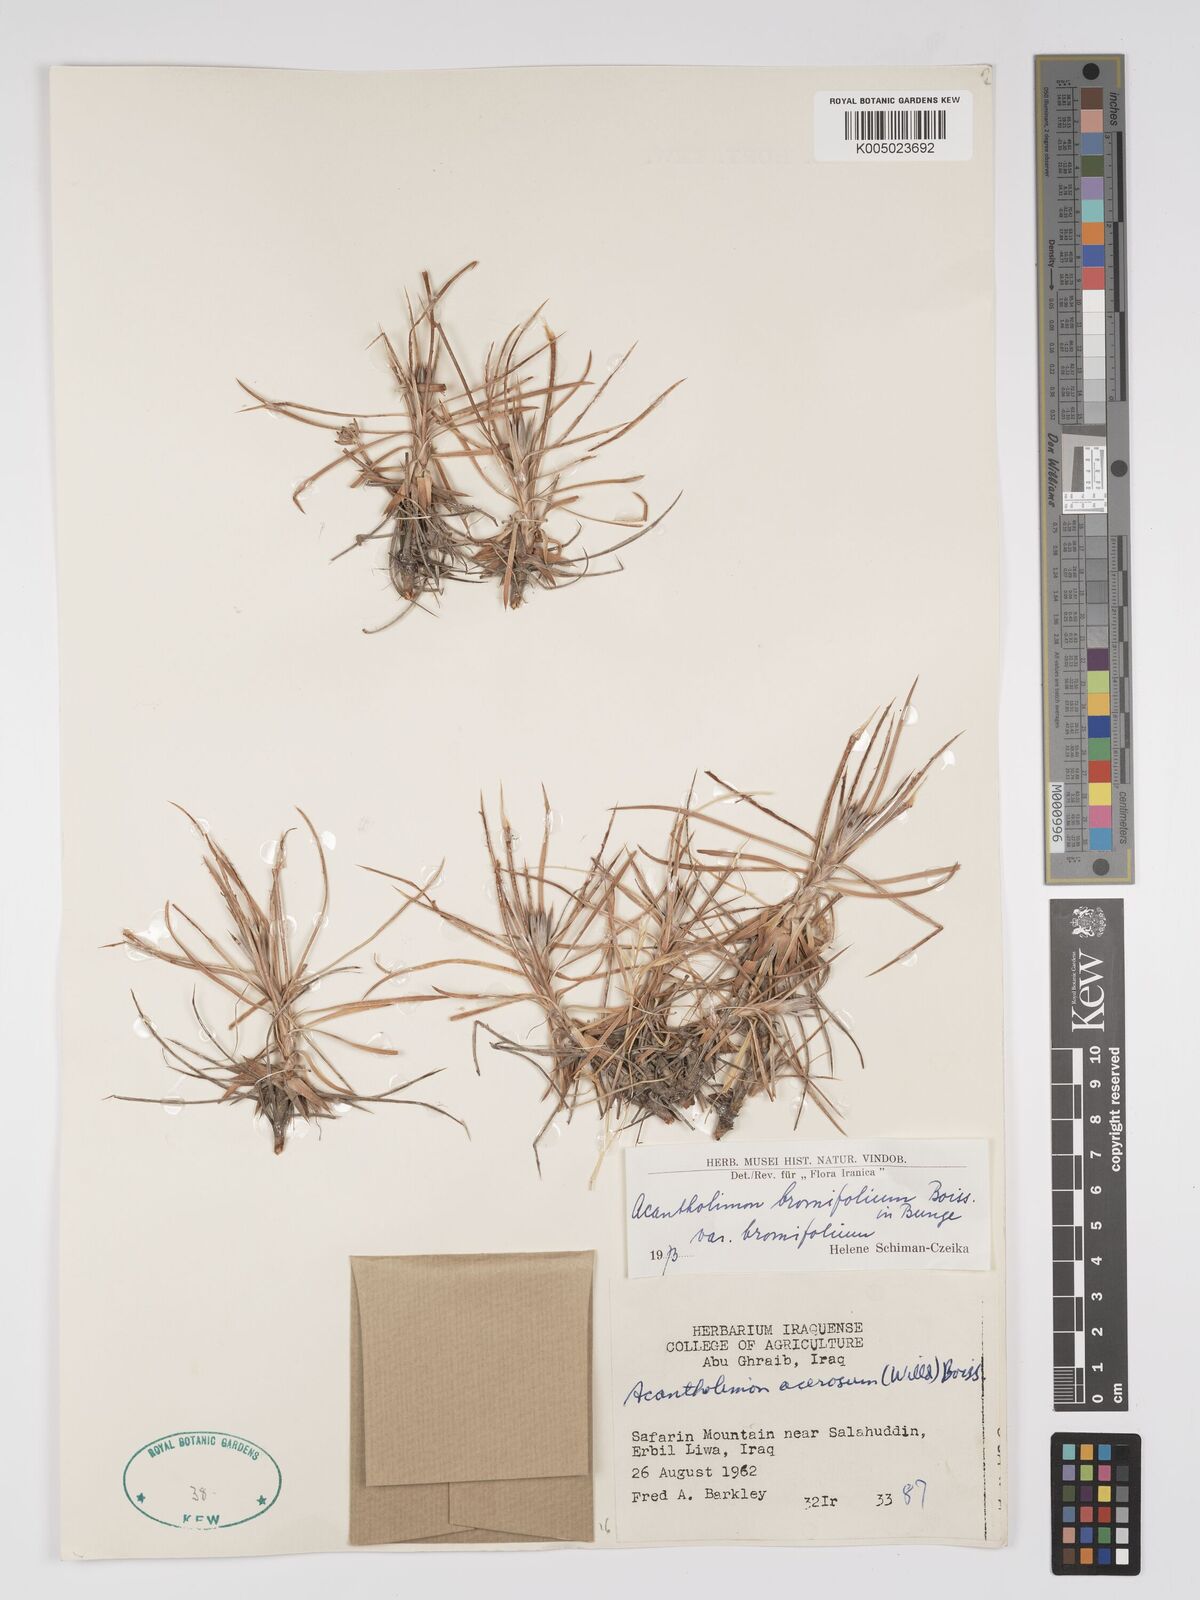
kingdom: Plantae
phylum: Tracheophyta
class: Magnoliopsida
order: Caryophyllales
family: Plumbaginaceae
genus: Acantholimon
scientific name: Acantholimon bromifolium
